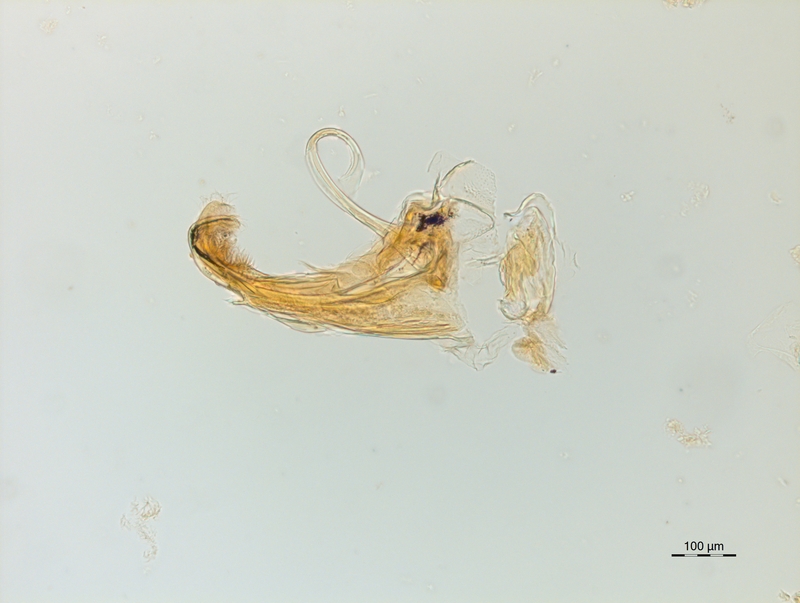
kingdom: Animalia
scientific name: Animalia
